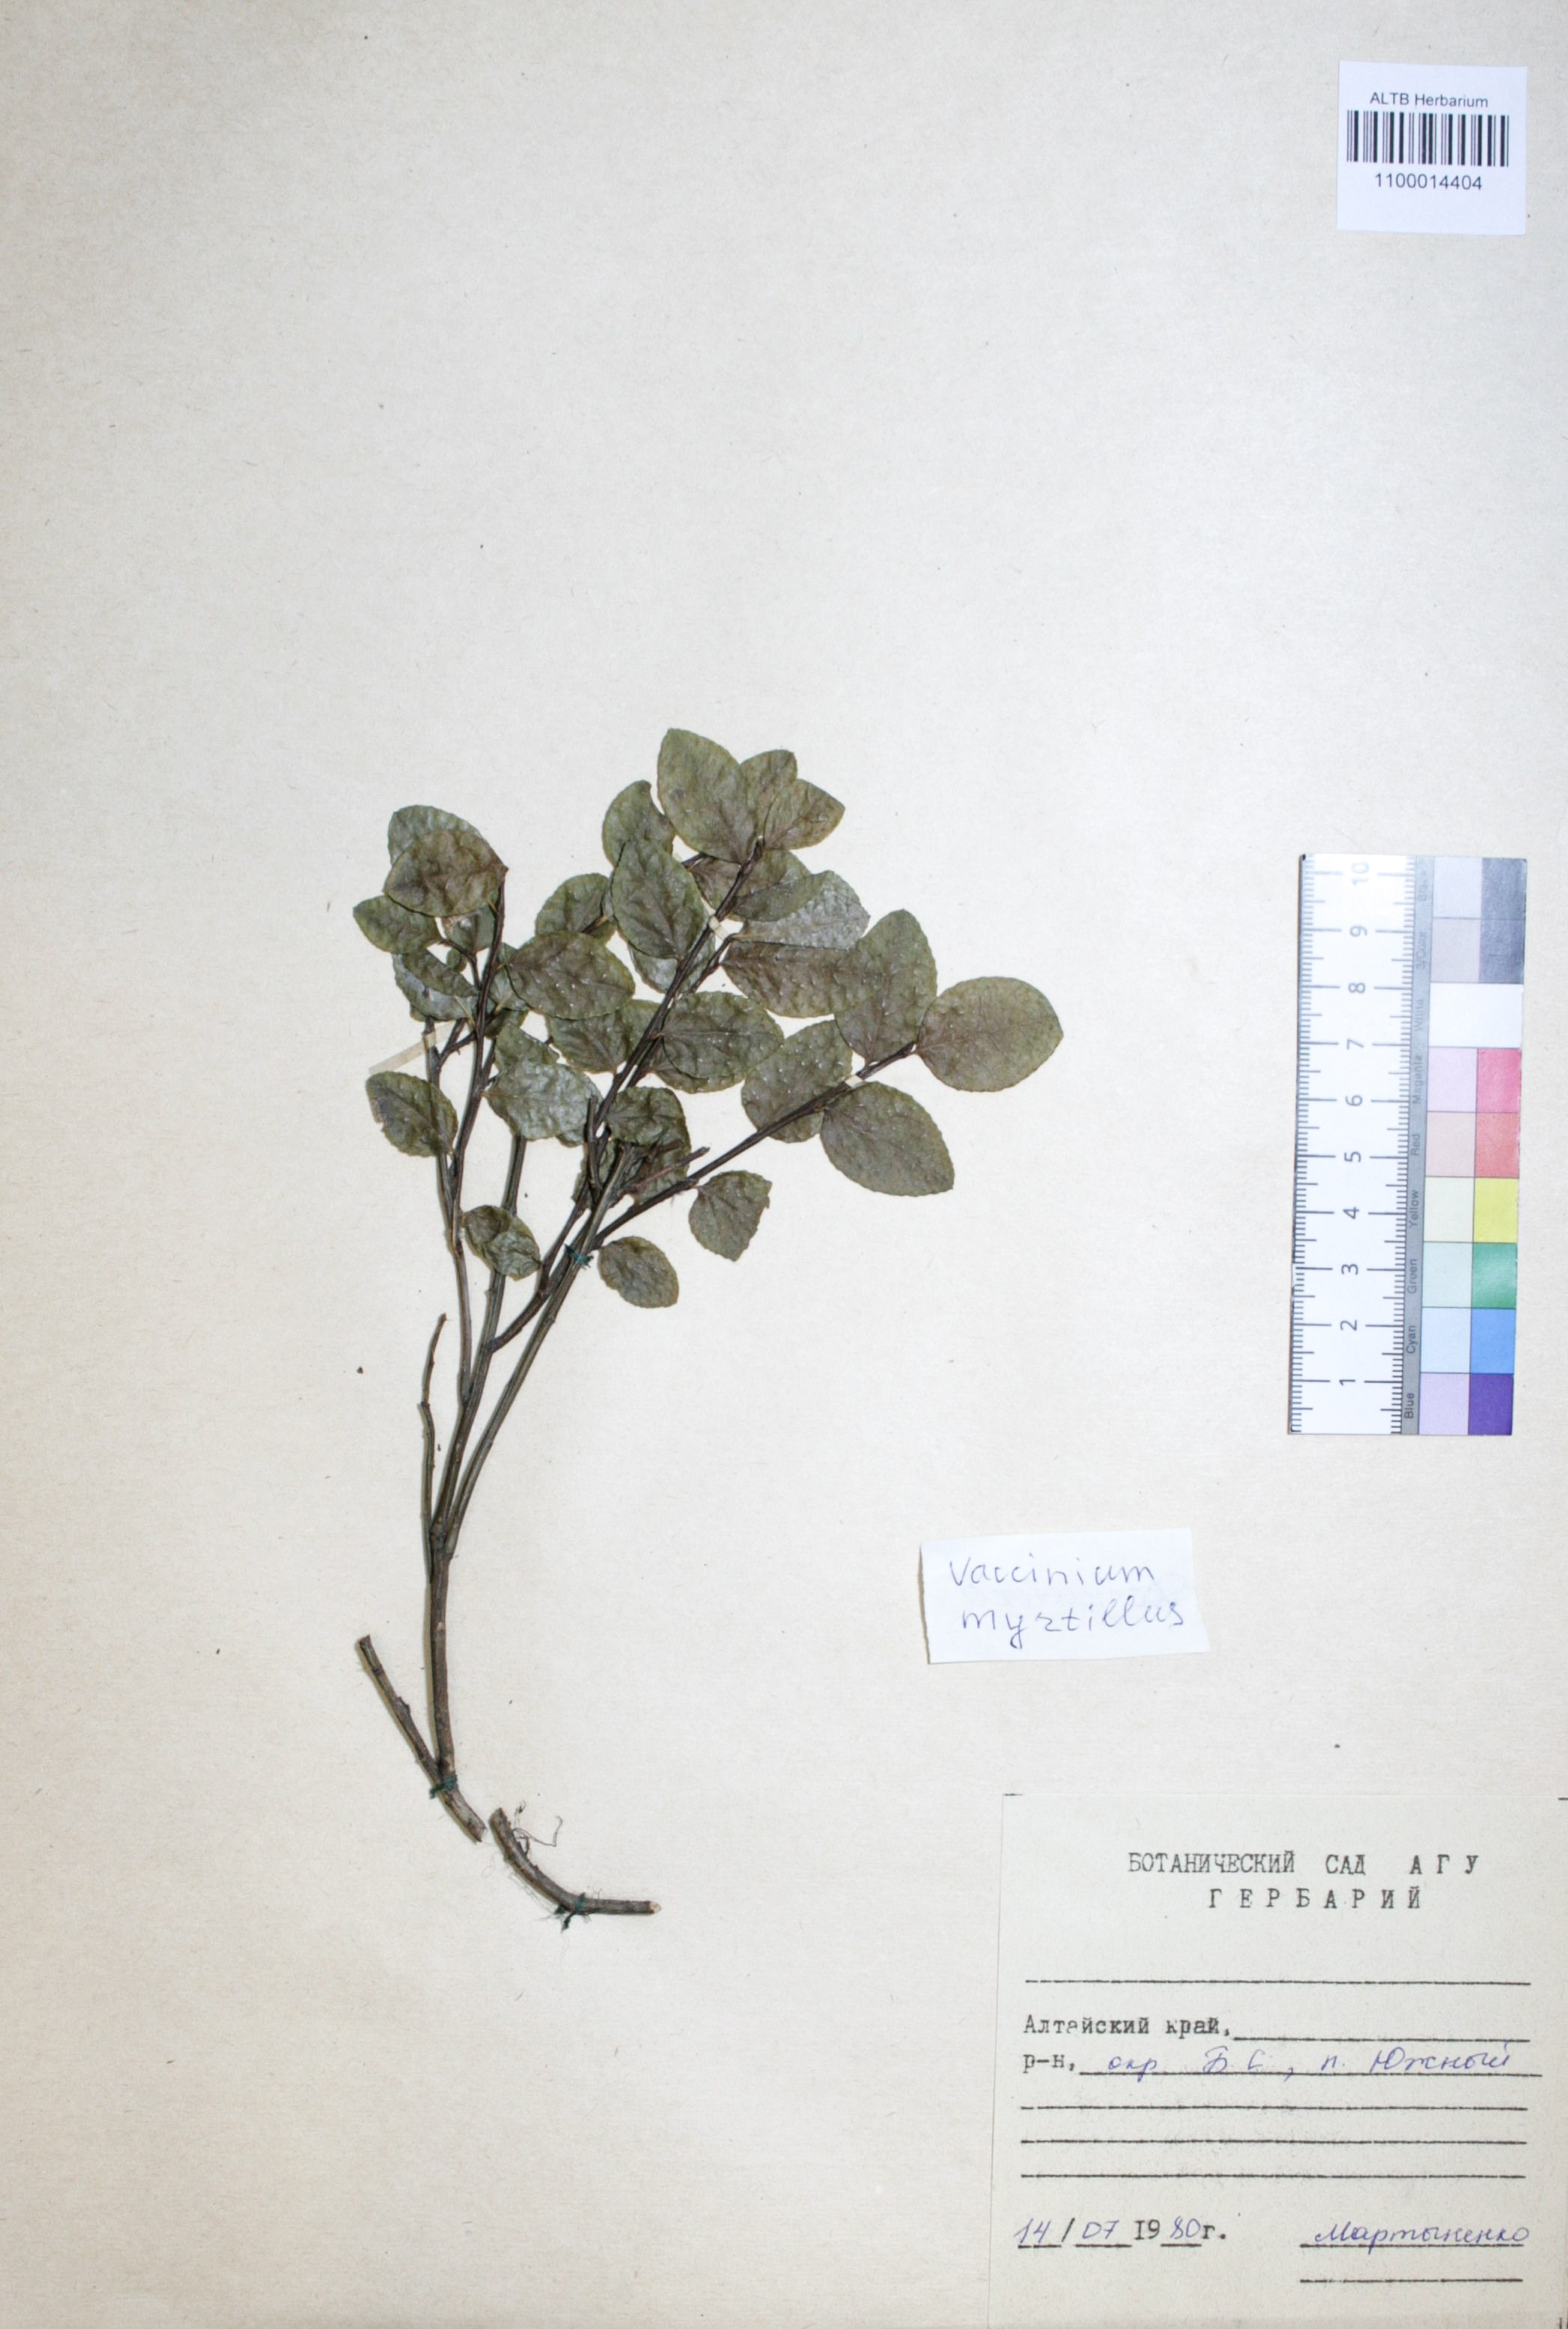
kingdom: Plantae
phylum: Tracheophyta
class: Magnoliopsida
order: Ericales
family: Ericaceae
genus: Vaccinium
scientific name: Vaccinium myrtillus
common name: Bilberry
